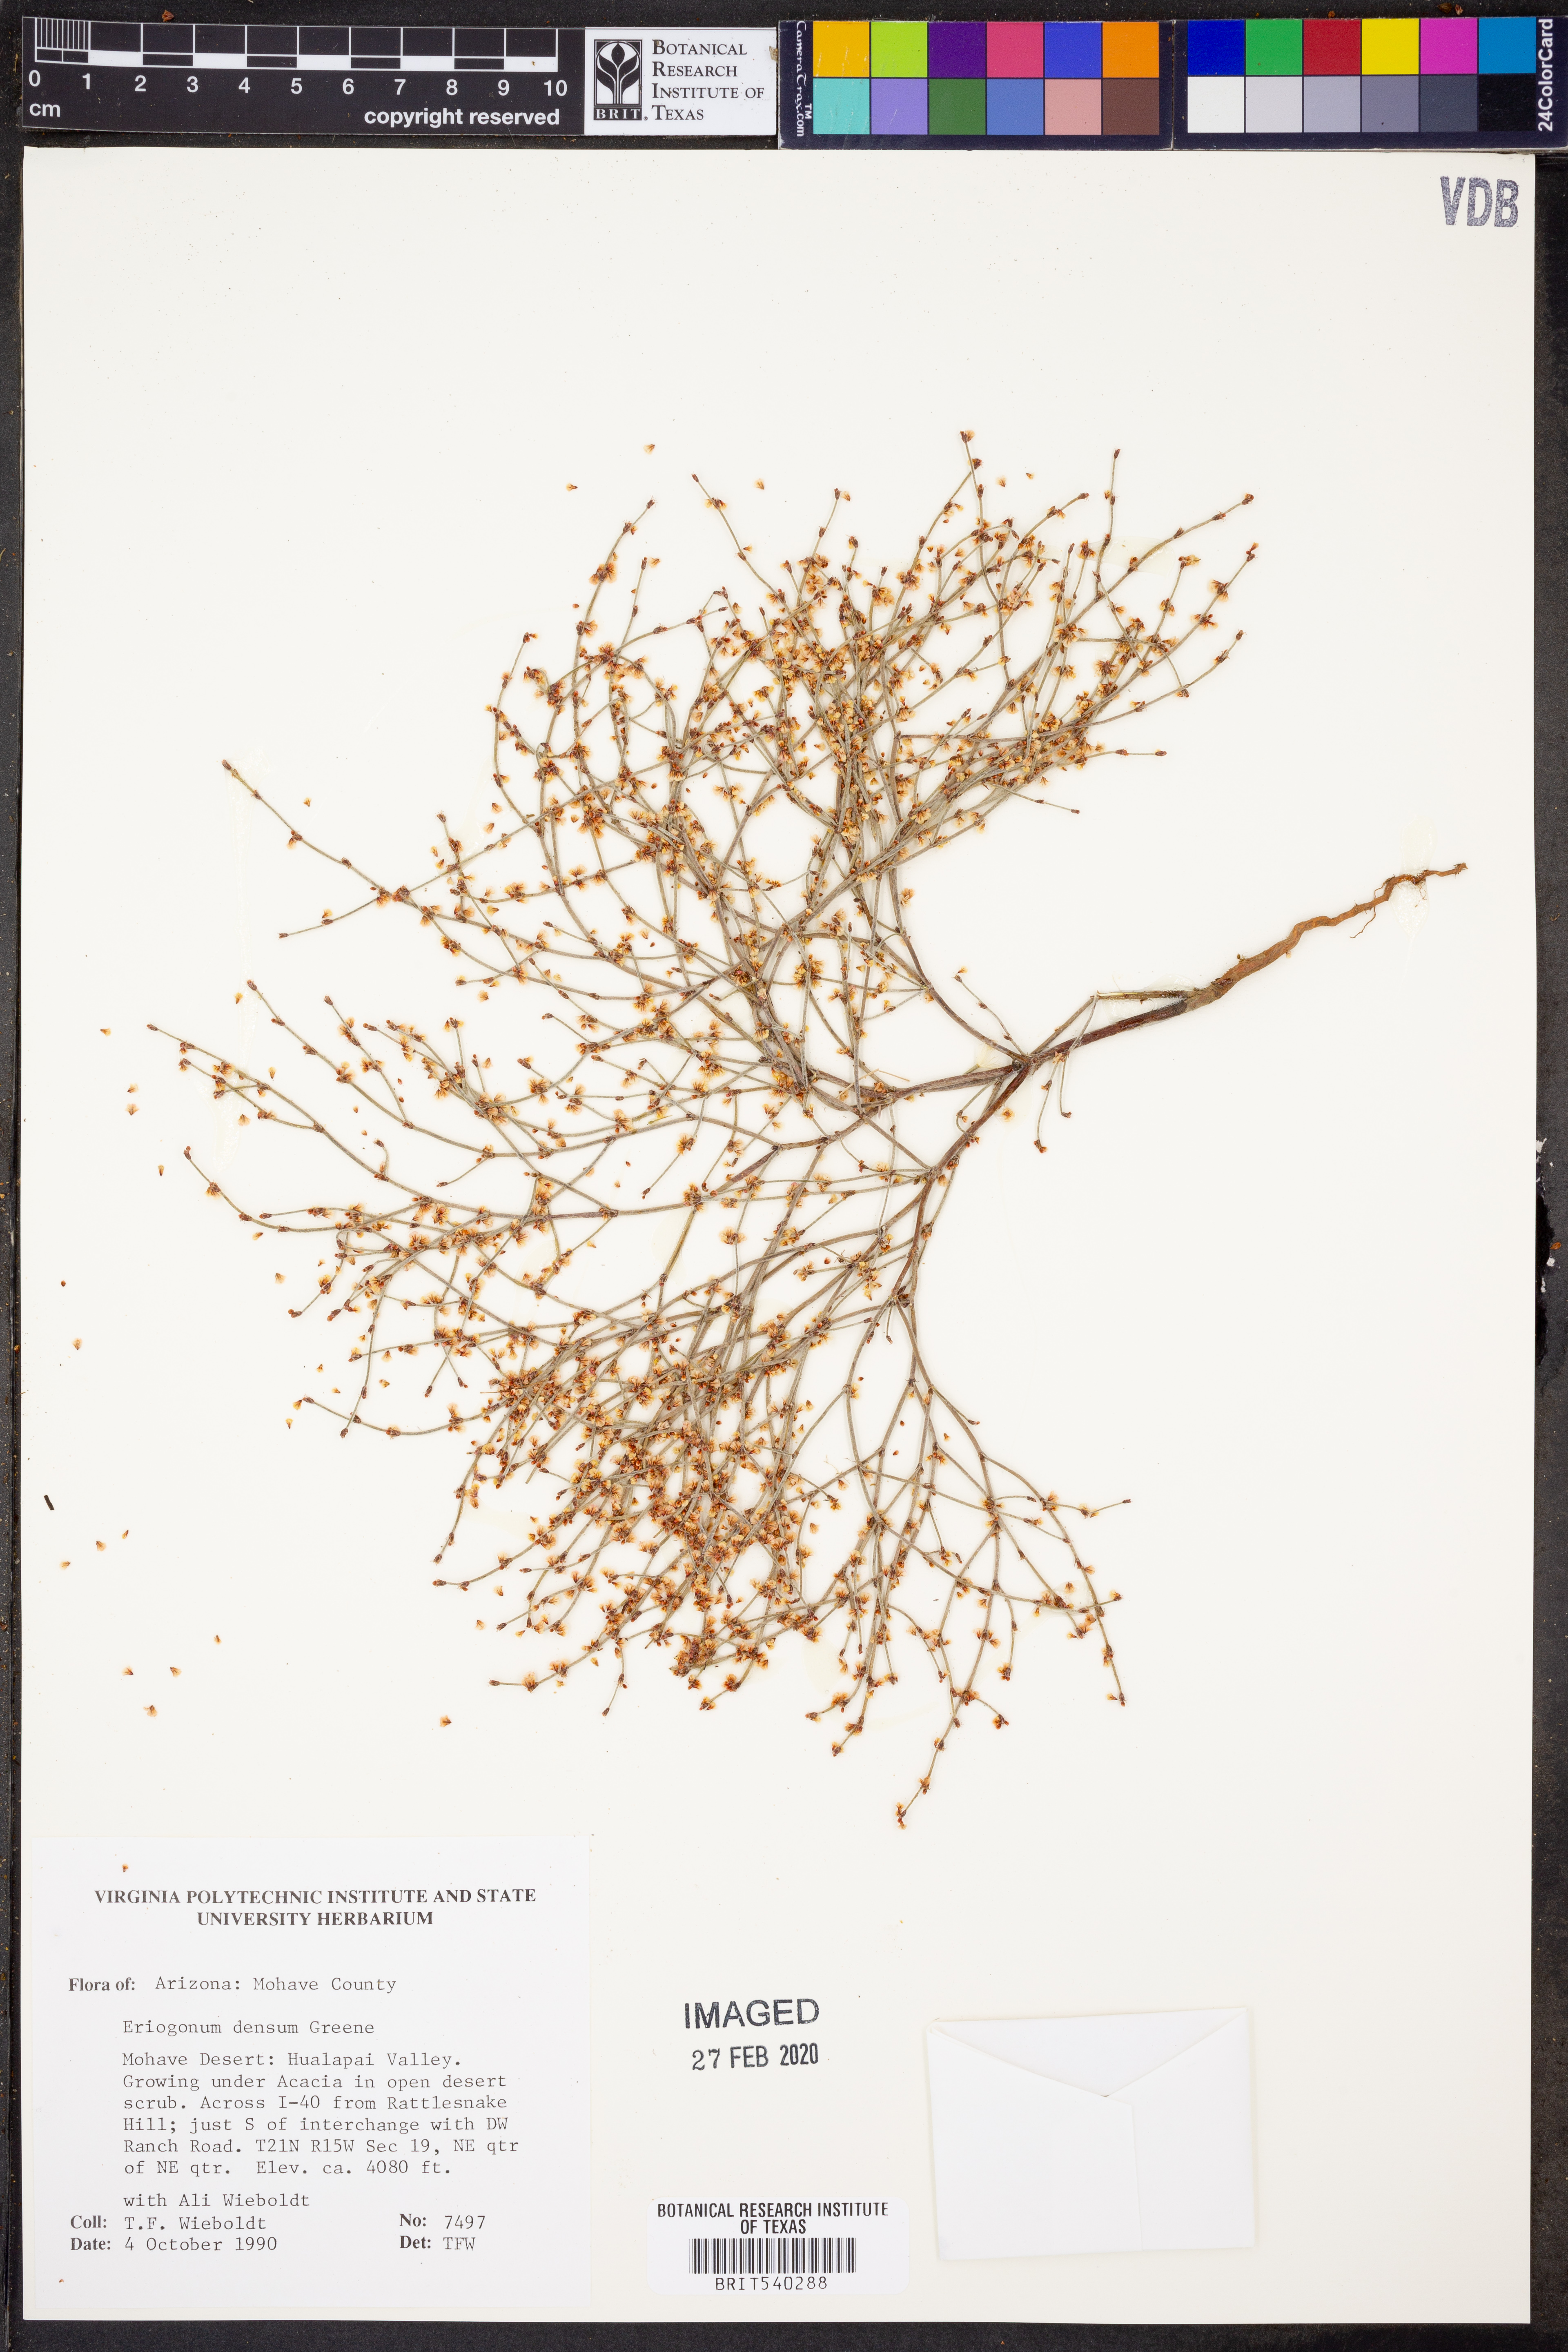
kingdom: Plantae
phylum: Tracheophyta
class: Magnoliopsida
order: Caryophyllales
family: Polygonaceae
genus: Eriogonum
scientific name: Eriogonum polycladon
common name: Sorrel wild buckwheat
